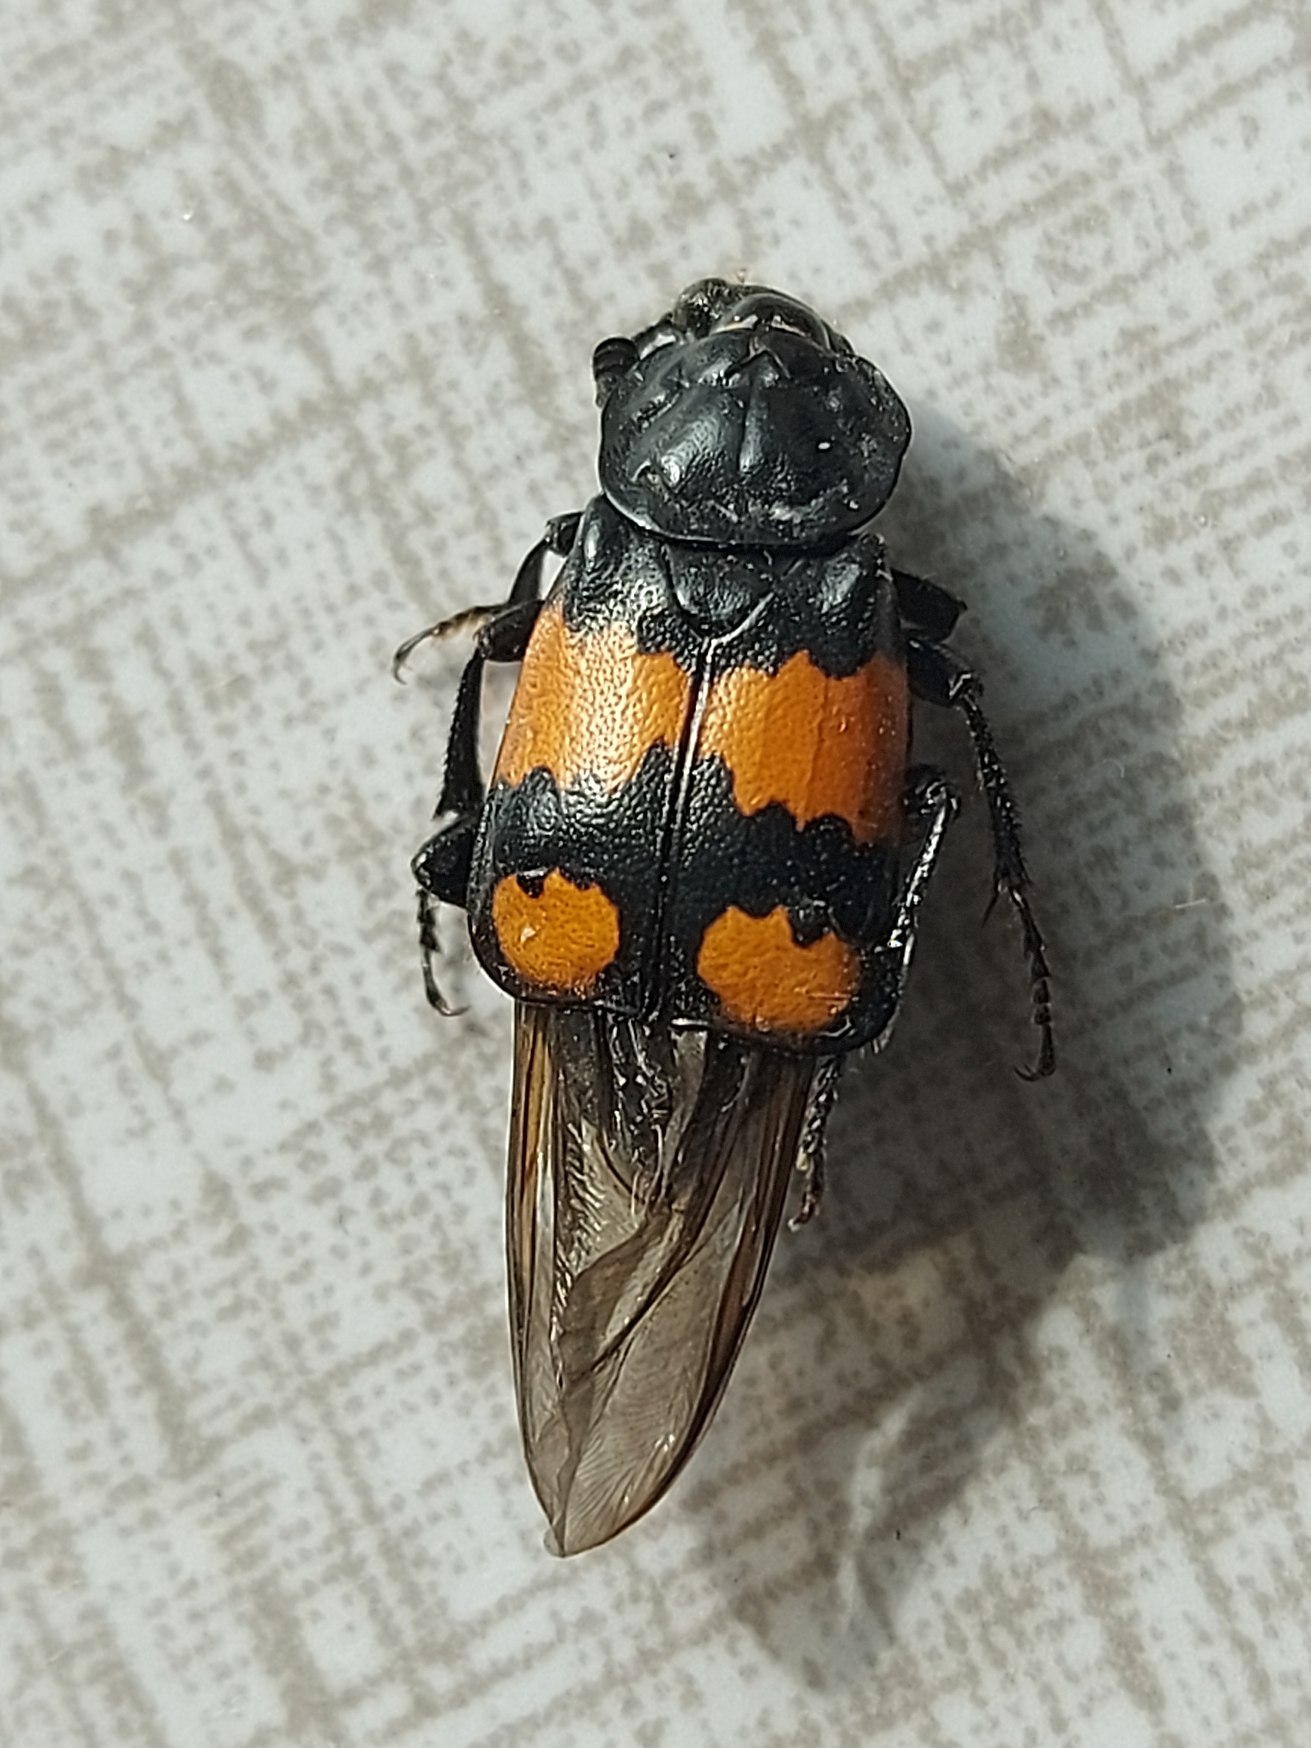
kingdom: Animalia
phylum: Arthropoda
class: Insecta
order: Coleoptera
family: Staphylinidae
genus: Nicrophorus
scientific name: Nicrophorus vespilloides
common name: Sortkøllet ådselgraver
